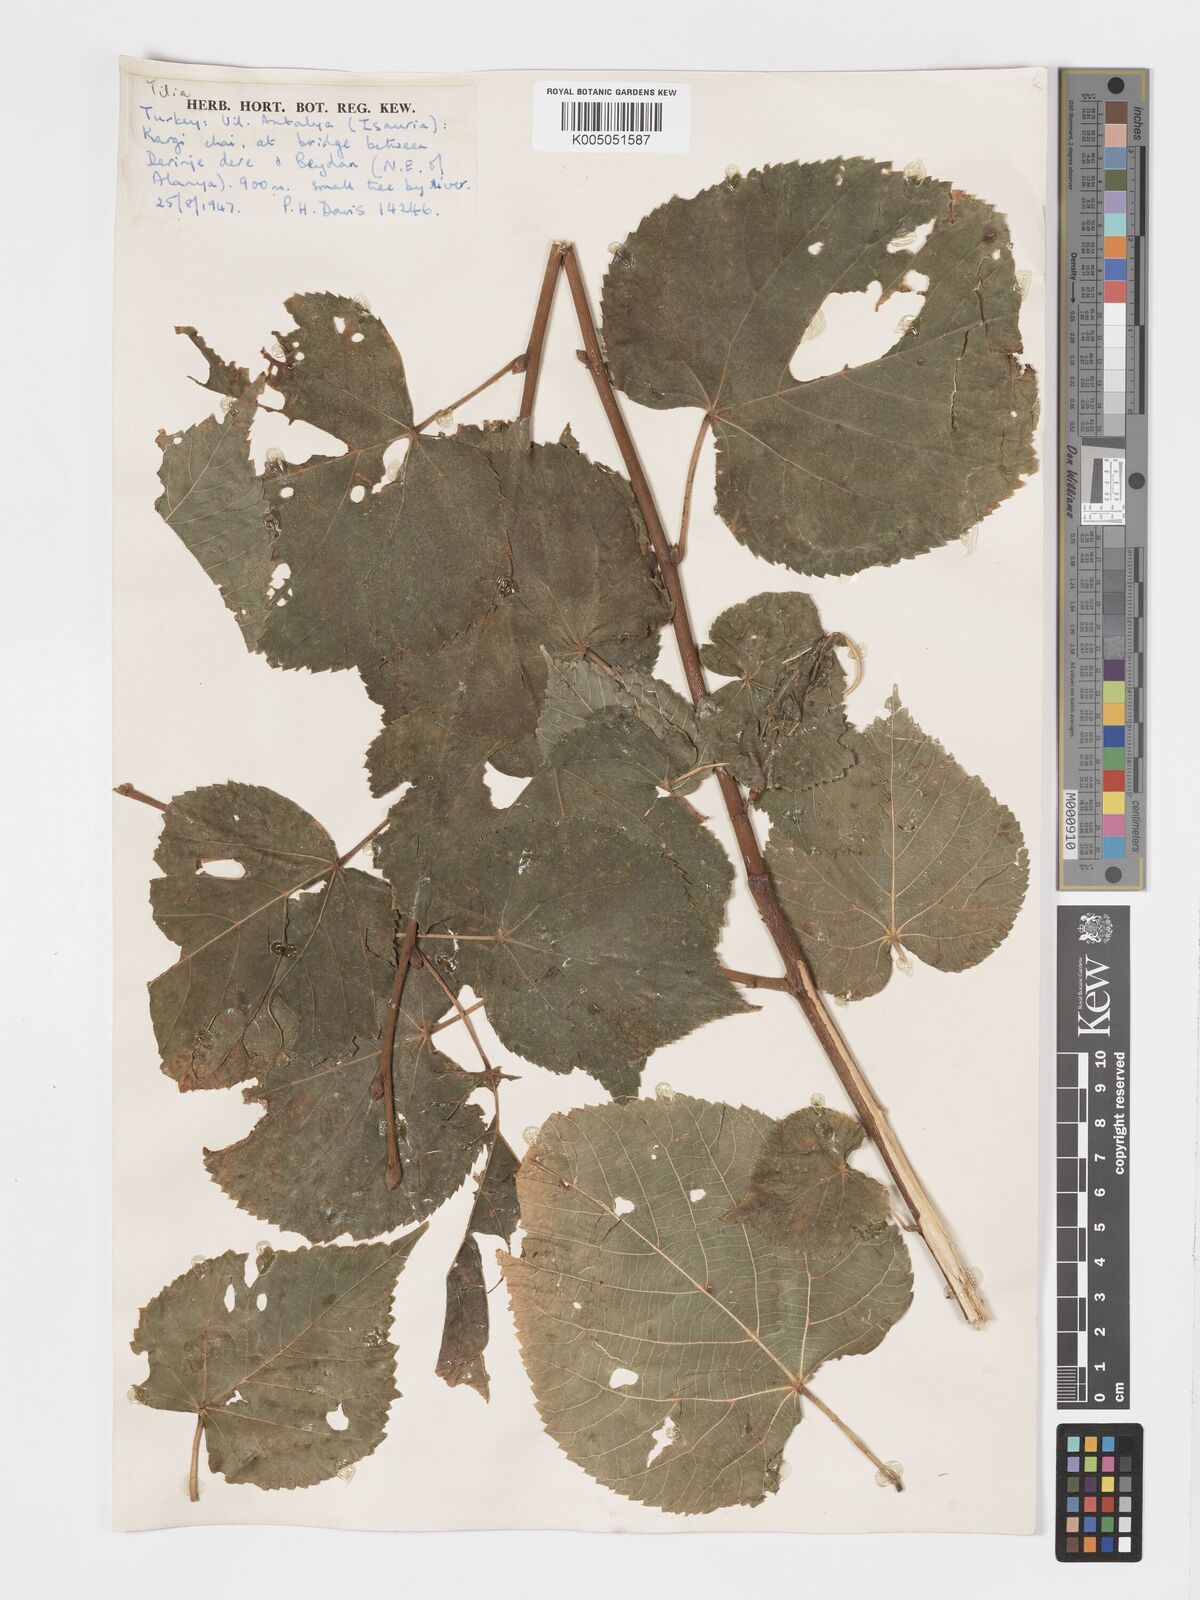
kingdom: Plantae
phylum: Tracheophyta
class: Magnoliopsida
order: Malvales
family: Malvaceae
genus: Tilia
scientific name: Tilia
